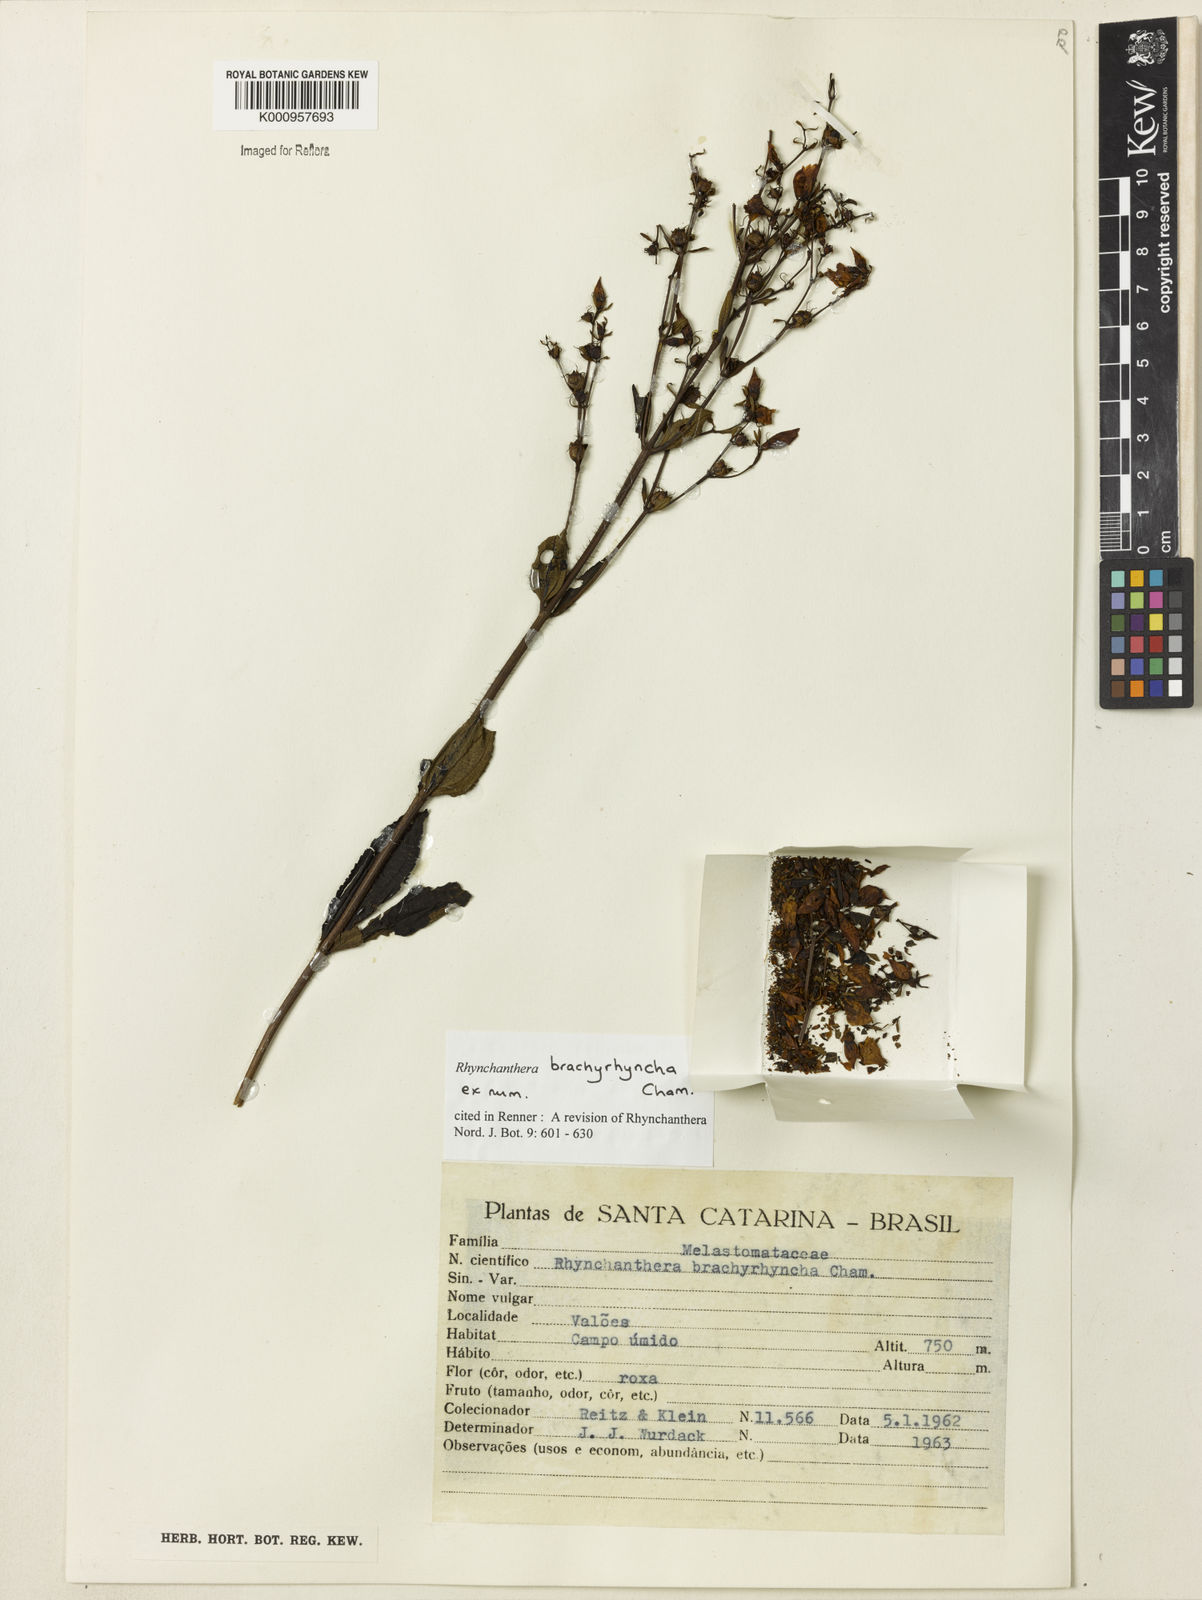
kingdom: Plantae
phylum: Tracheophyta
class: Magnoliopsida
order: Myrtales
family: Melastomataceae
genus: Rhynchanthera
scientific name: Rhynchanthera brachyrhyncha
